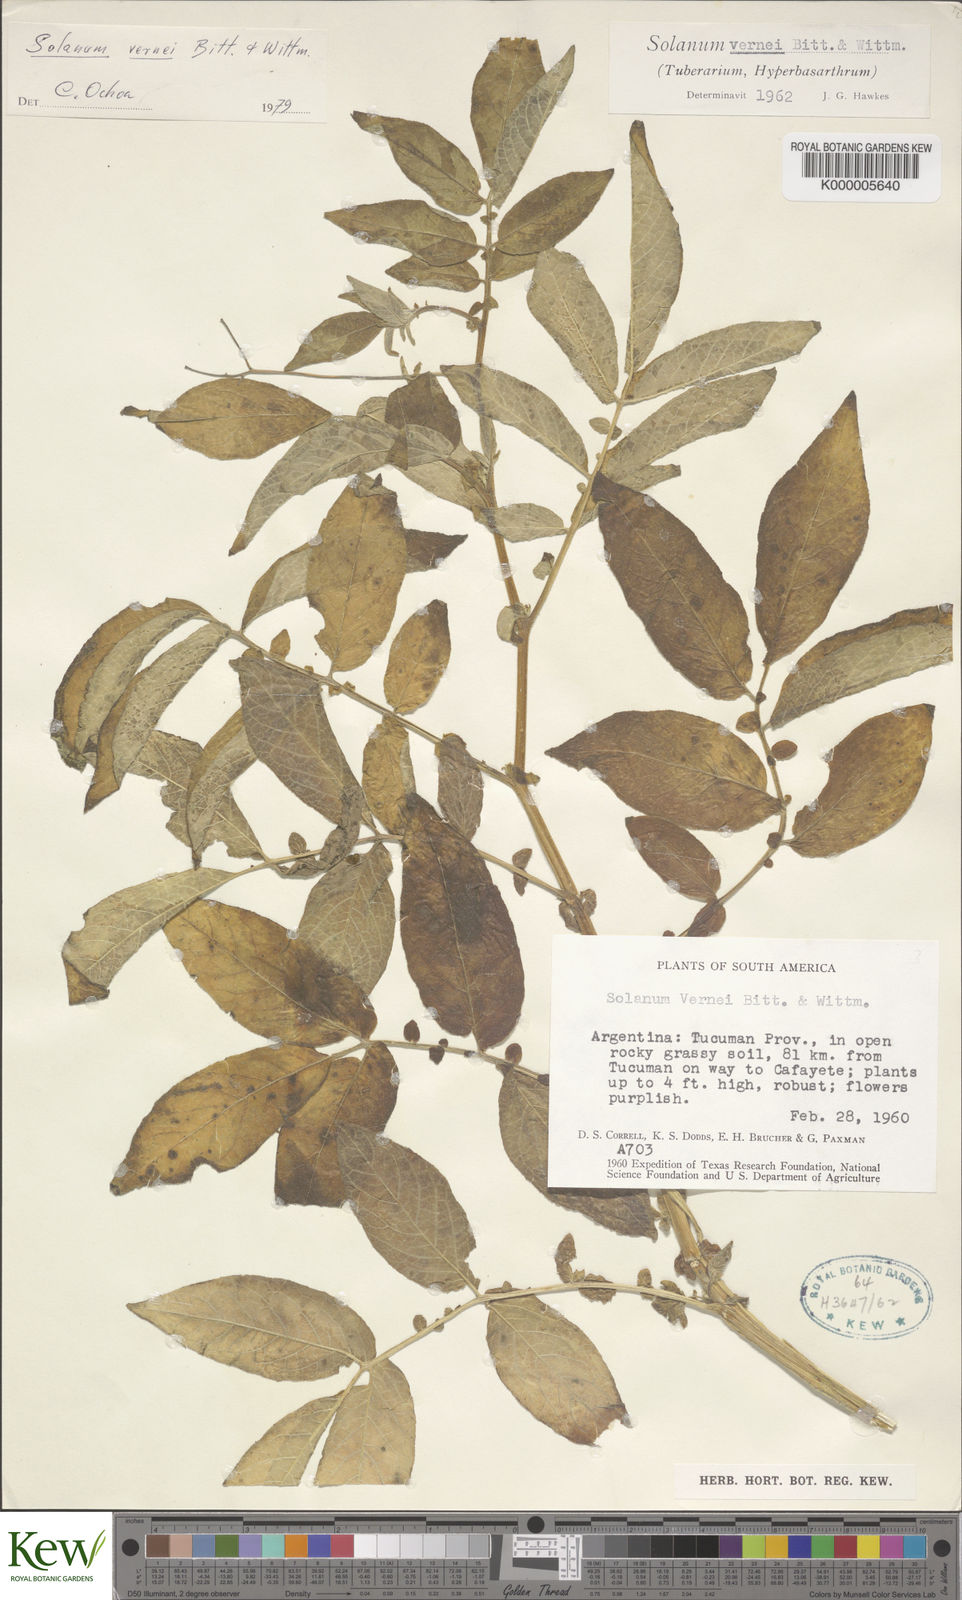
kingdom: Plantae
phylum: Tracheophyta
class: Magnoliopsida
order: Solanales
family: Solanaceae
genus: Solanum
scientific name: Solanum vernei
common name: Purple potato
